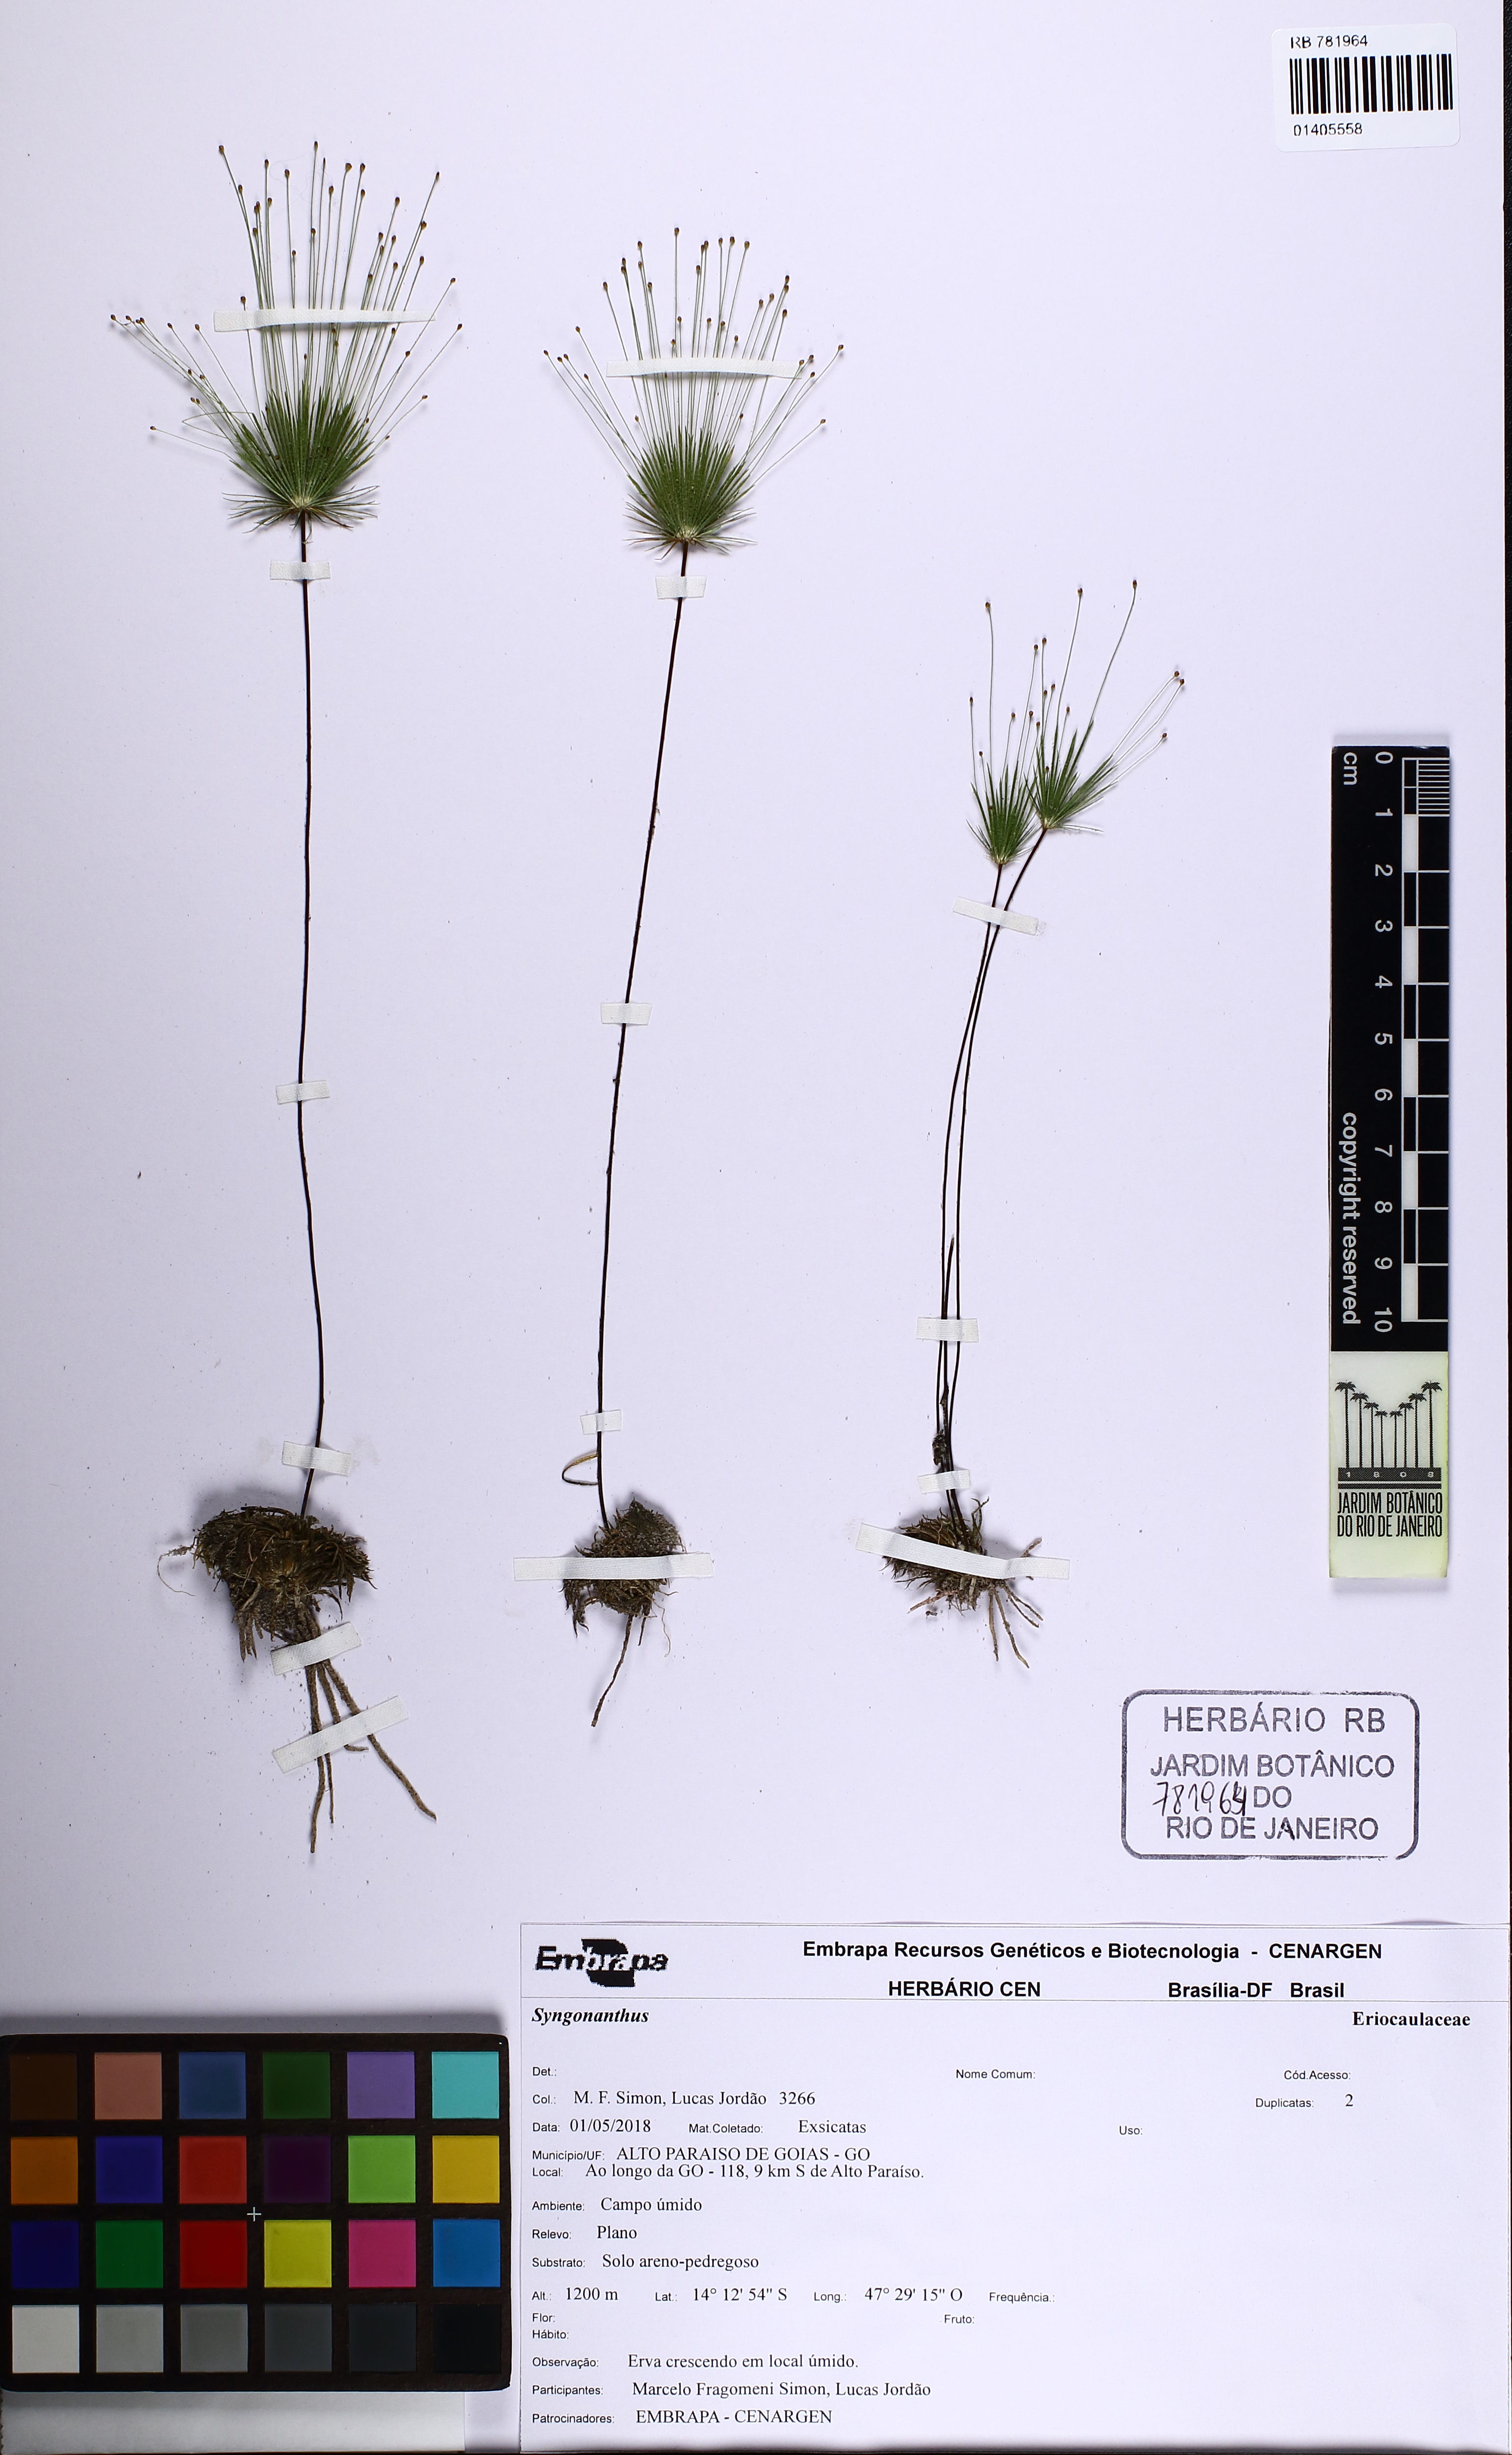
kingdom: Plantae
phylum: Tracheophyta
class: Liliopsida
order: Poales
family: Eriocaulaceae
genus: Syngonanthus
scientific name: Syngonanthus decorus
